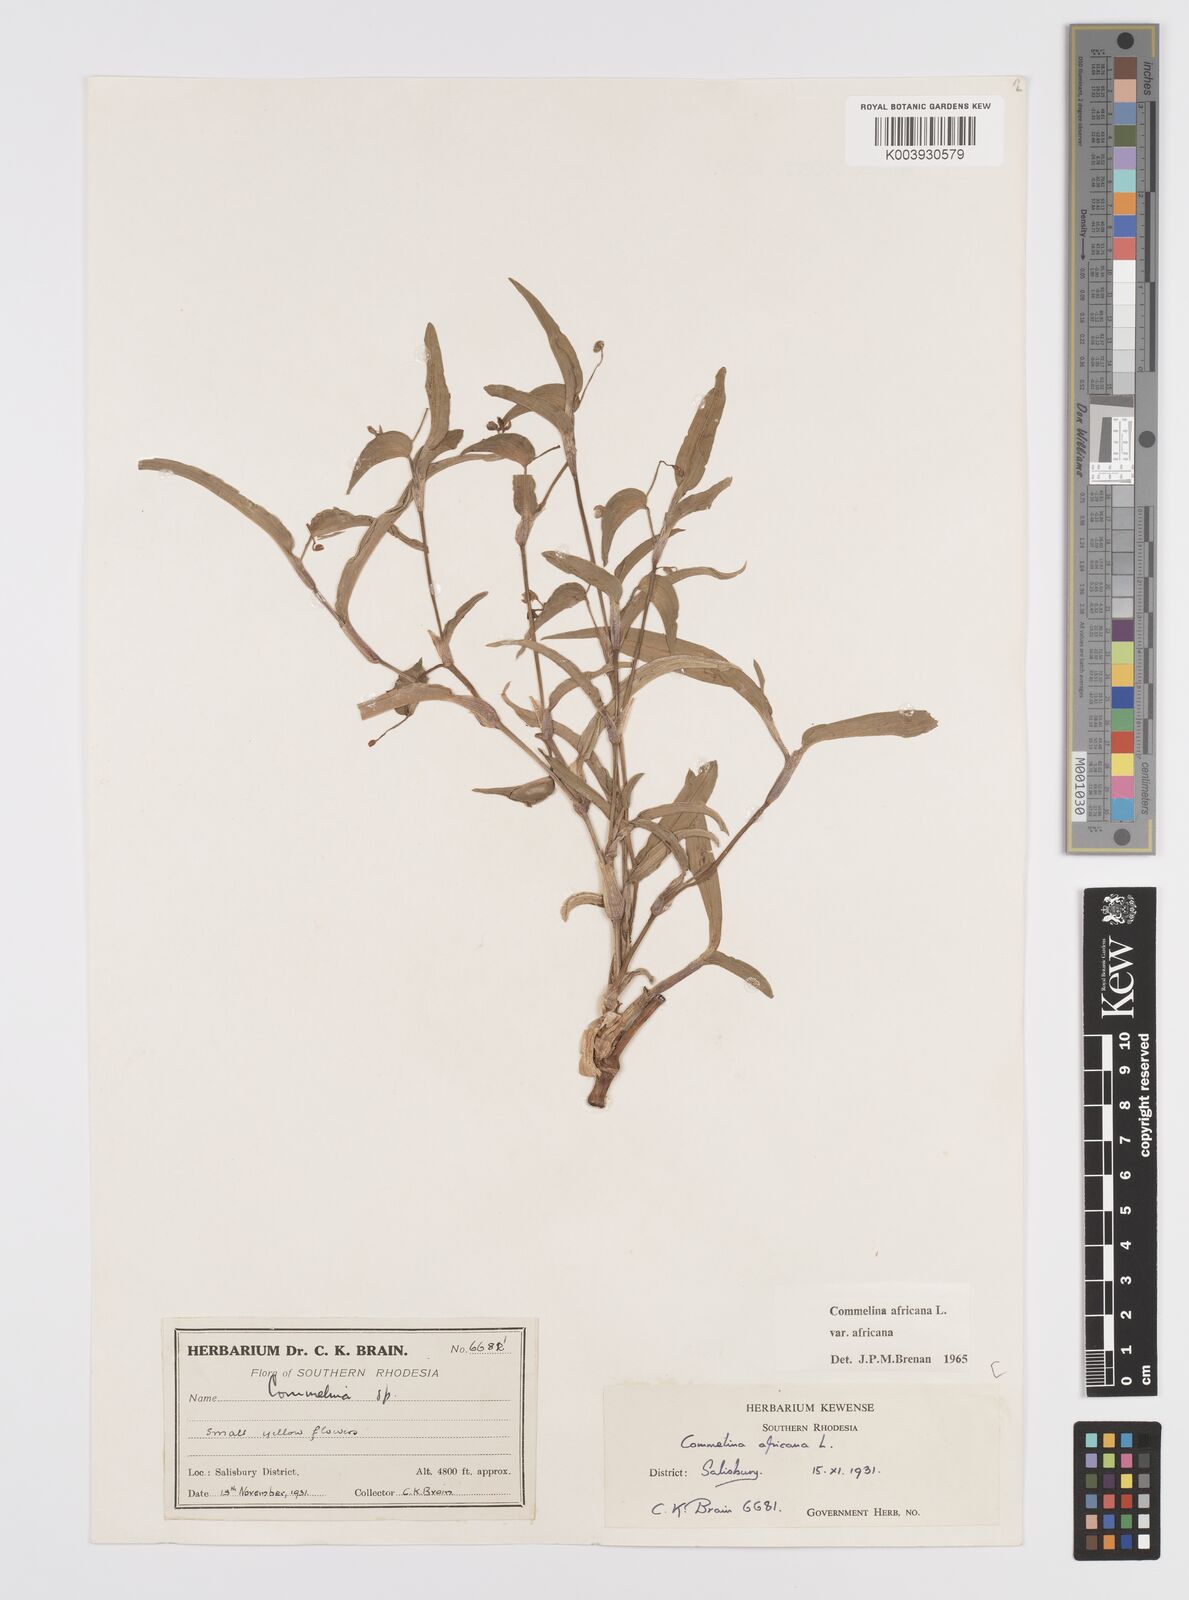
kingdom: Plantae
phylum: Tracheophyta
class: Liliopsida
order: Commelinales
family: Commelinaceae
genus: Commelina
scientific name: Commelina africana
